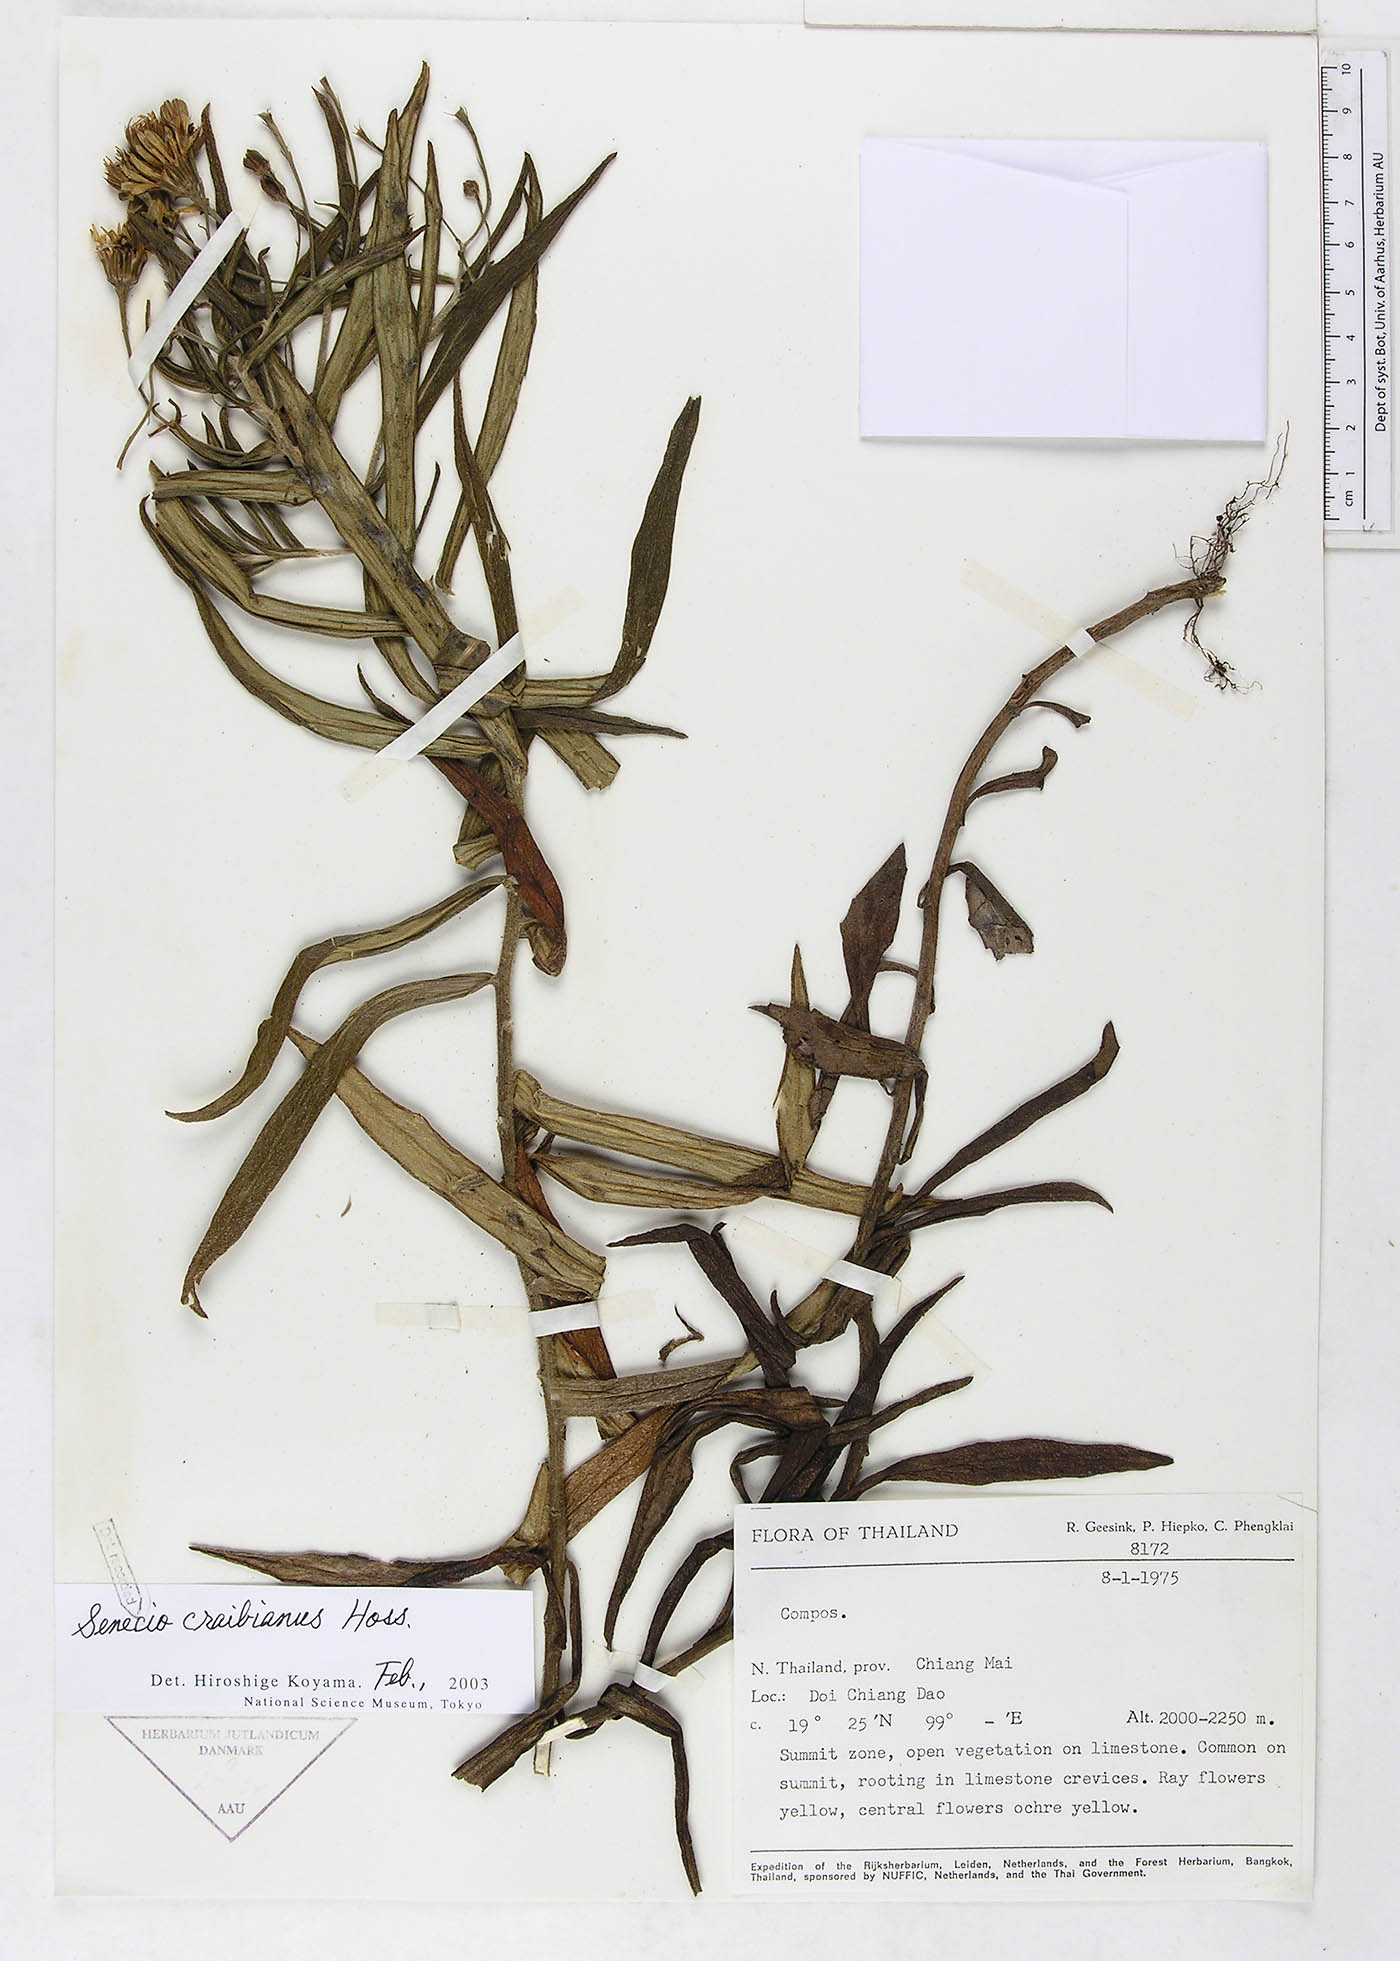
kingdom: Plantae
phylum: Tracheophyta
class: Magnoliopsida
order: Asterales
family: Asteraceae
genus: Senecio
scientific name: Senecio craibinnus
